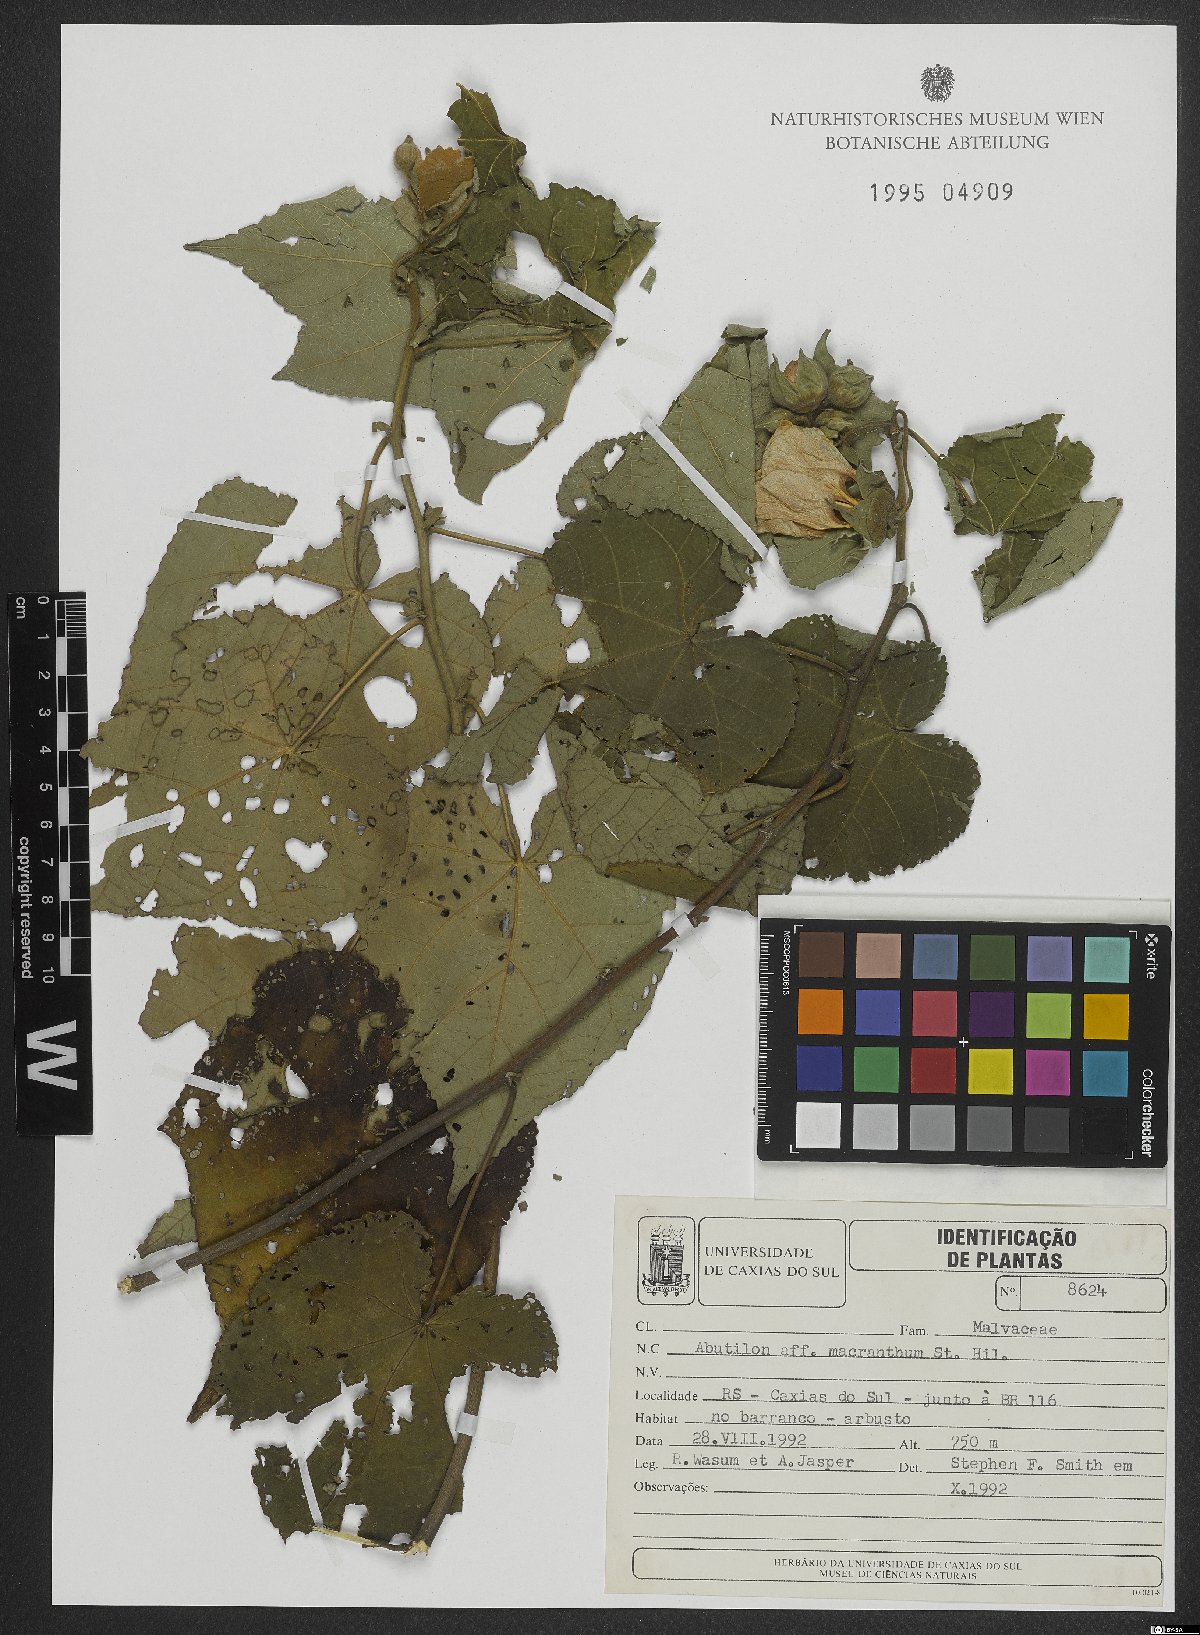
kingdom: Plantae
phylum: Tracheophyta
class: Magnoliopsida
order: Malvales
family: Malvaceae
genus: Bakeridesia
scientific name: Bakeridesia ferruginea
